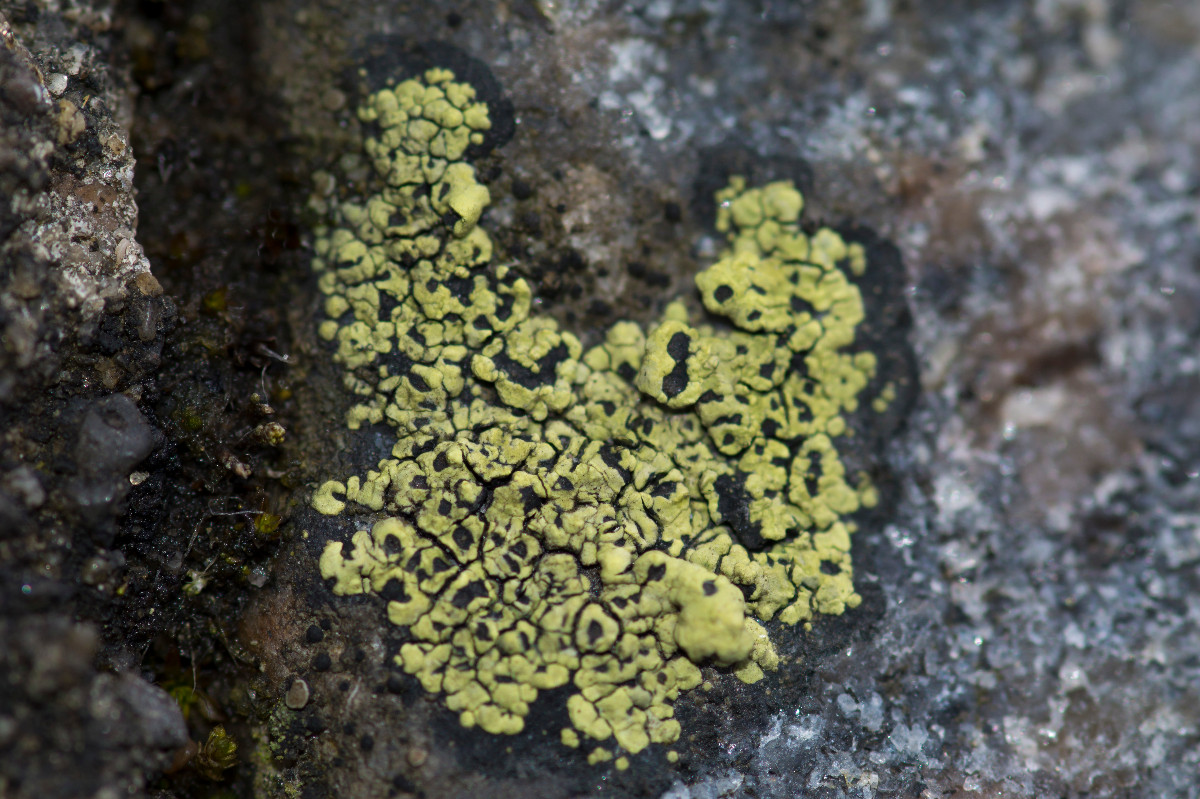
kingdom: Fungi
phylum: Ascomycota
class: Lecanoromycetes
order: Rhizocarpales
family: Rhizocarpaceae
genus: Rhizocarpon
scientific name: Rhizocarpon lecanorinum
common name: krave-landkortlav
